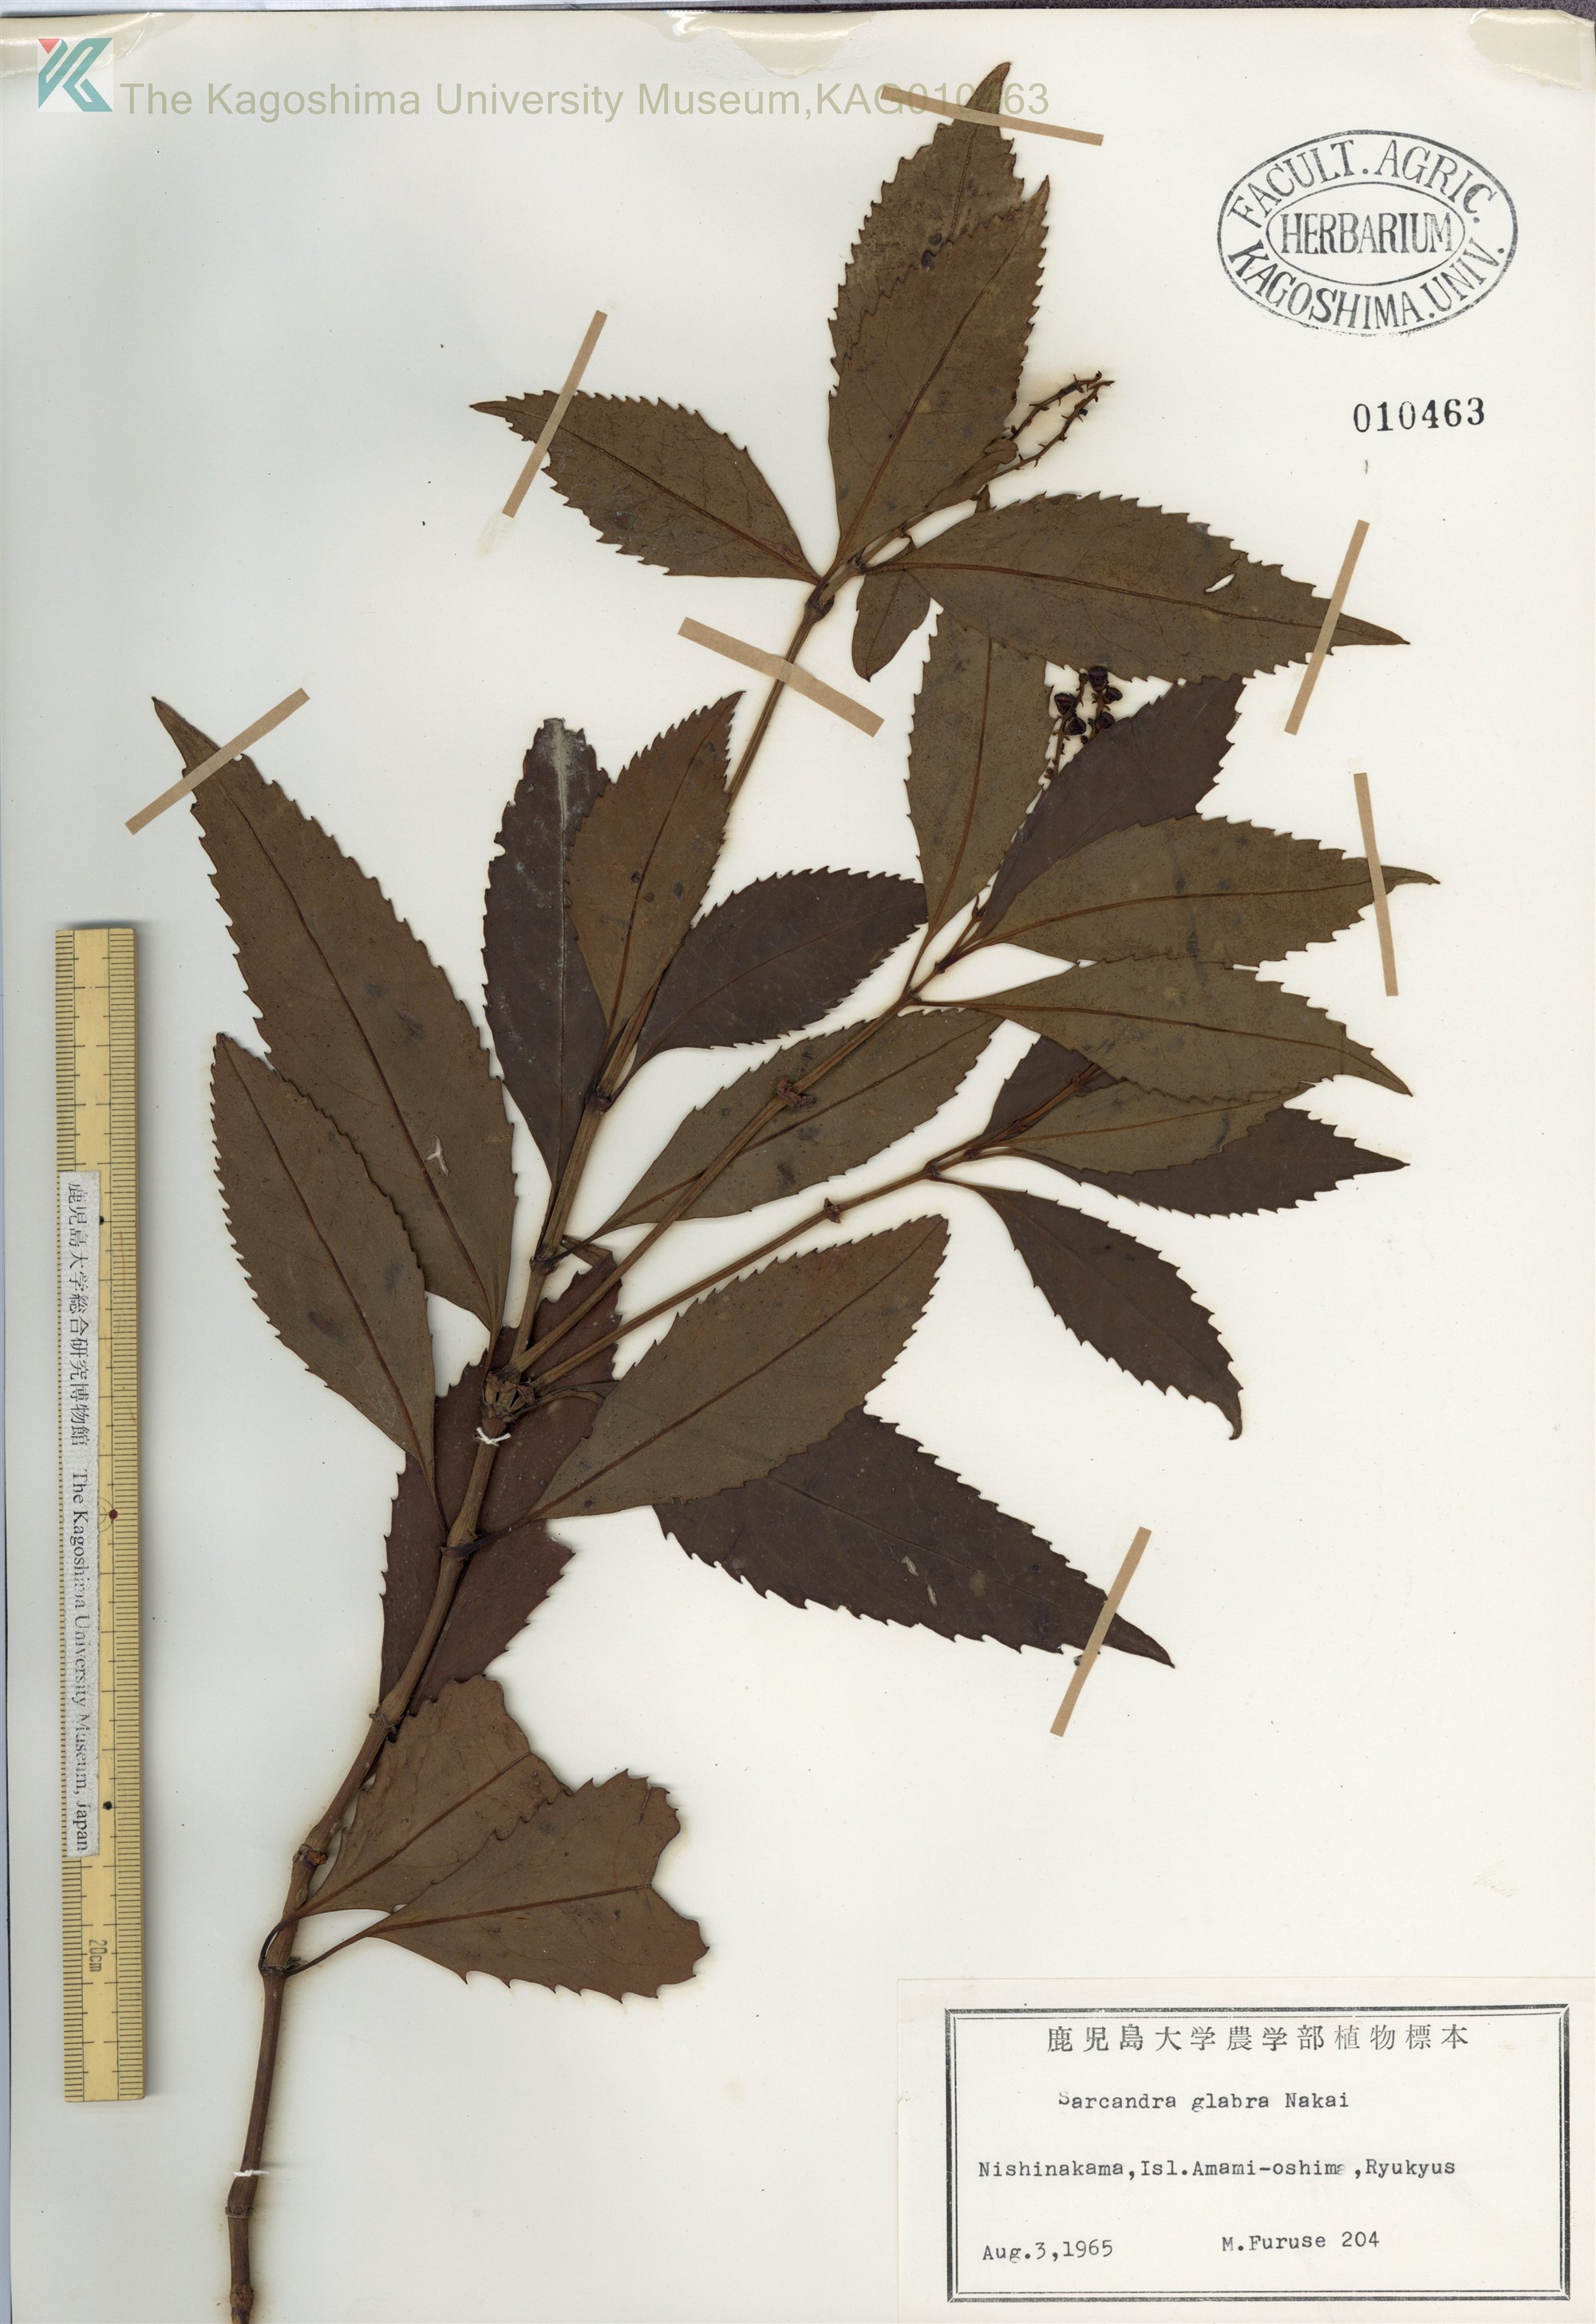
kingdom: Plantae
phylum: Tracheophyta
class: Magnoliopsida
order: Chloranthales
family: Chloranthaceae
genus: Sarcandra
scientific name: Sarcandra glabra
